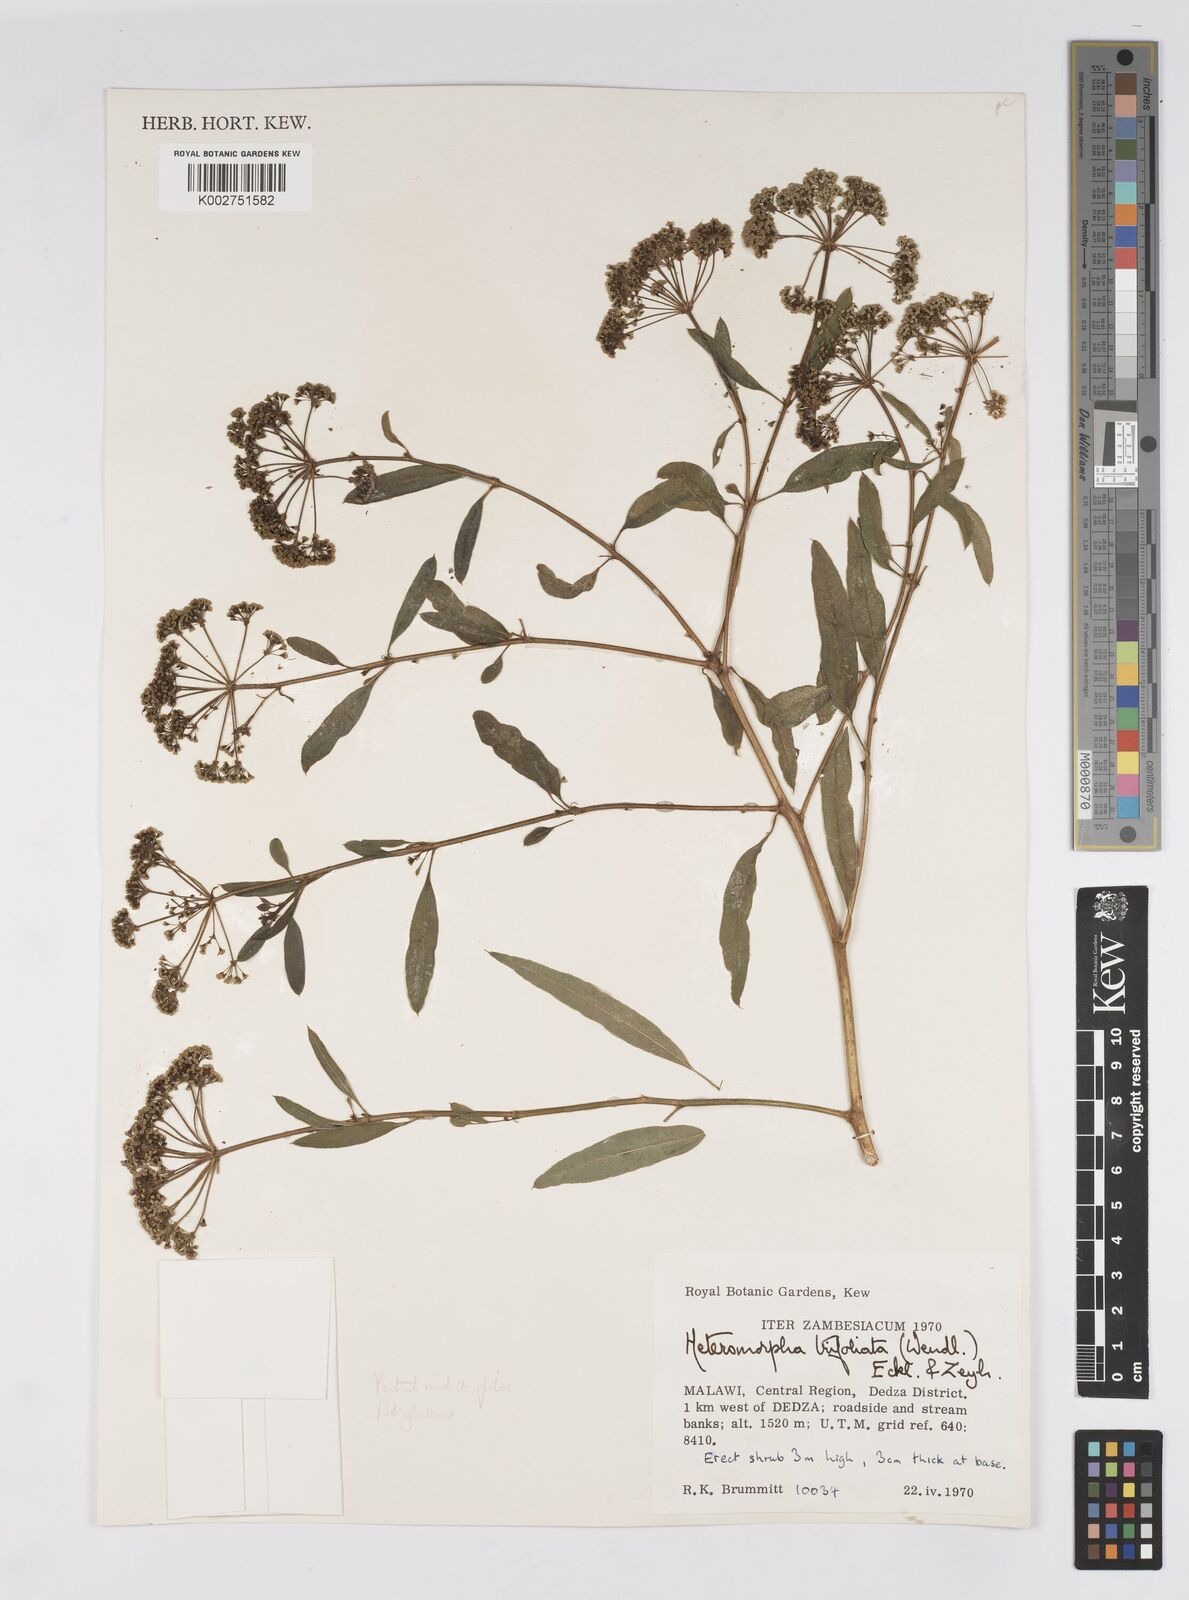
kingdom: Plantae
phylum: Tracheophyta
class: Magnoliopsida
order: Apiales
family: Apiaceae
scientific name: Apiaceae
